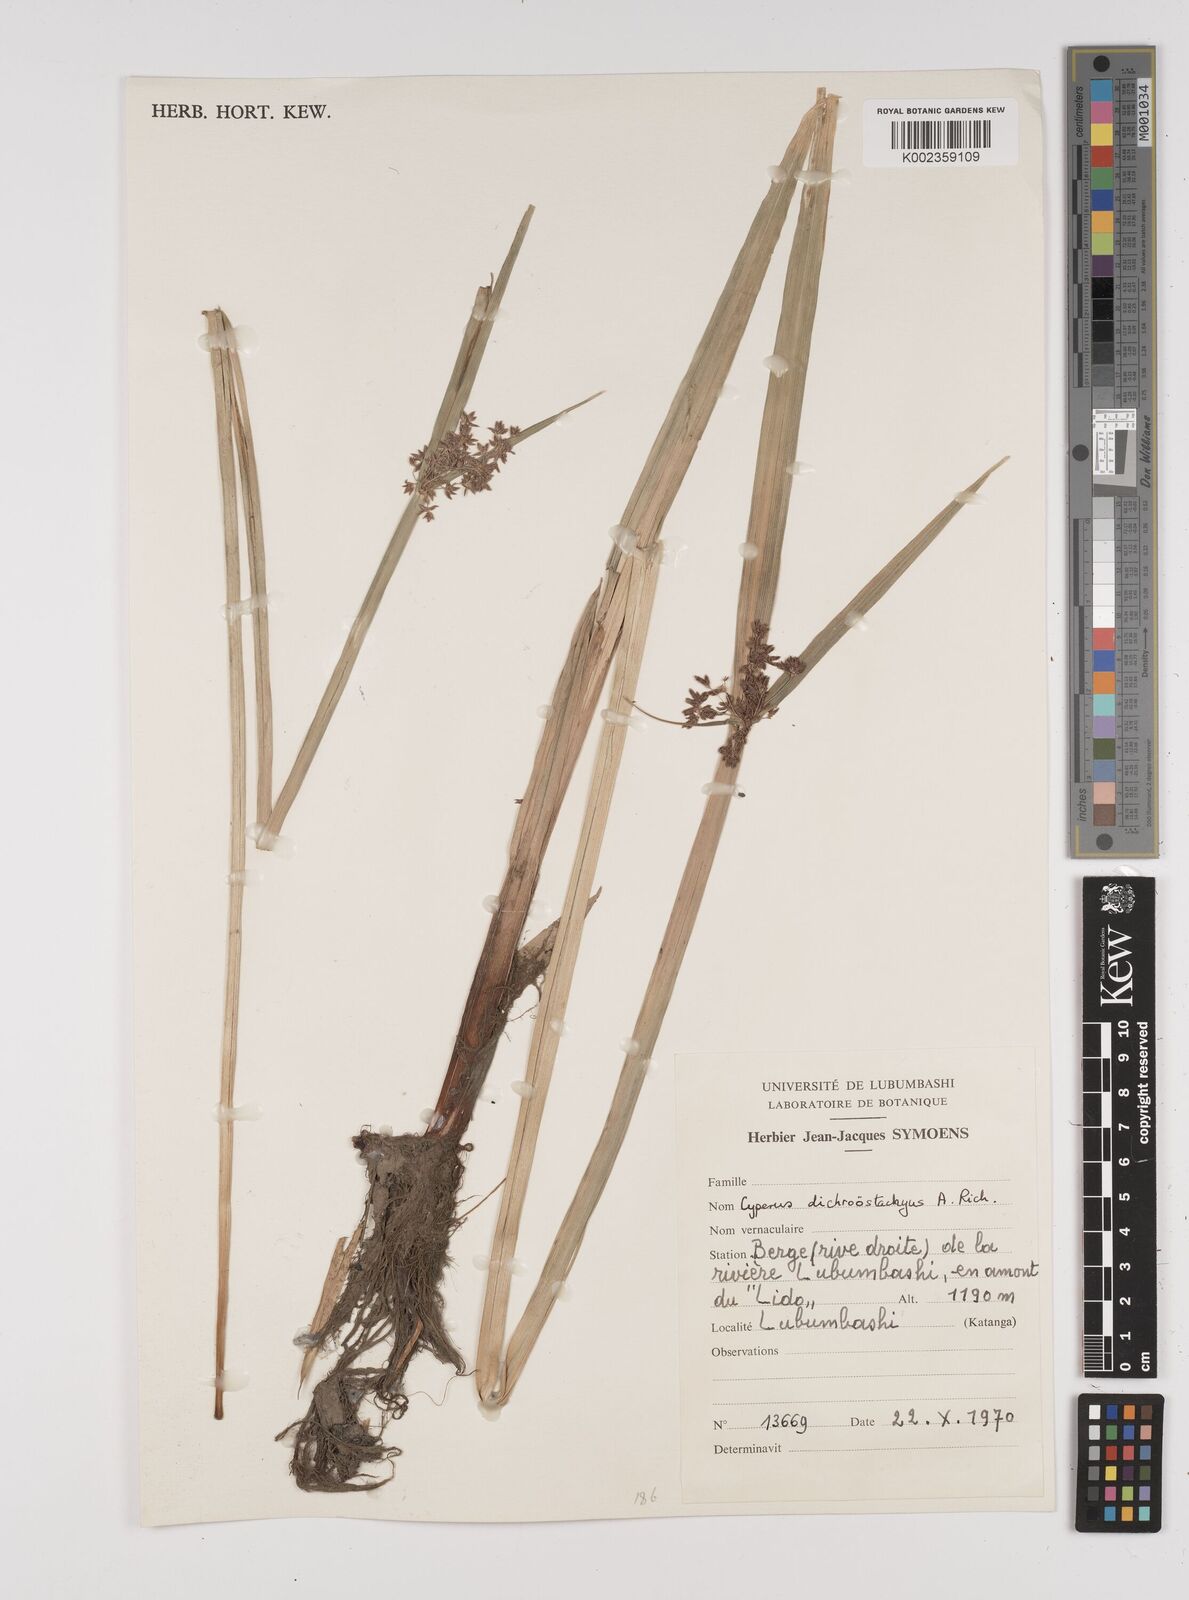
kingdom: Plantae
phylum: Tracheophyta
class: Liliopsida
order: Poales
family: Cyperaceae
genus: Cyperus
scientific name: Cyperus dichrostachyus
